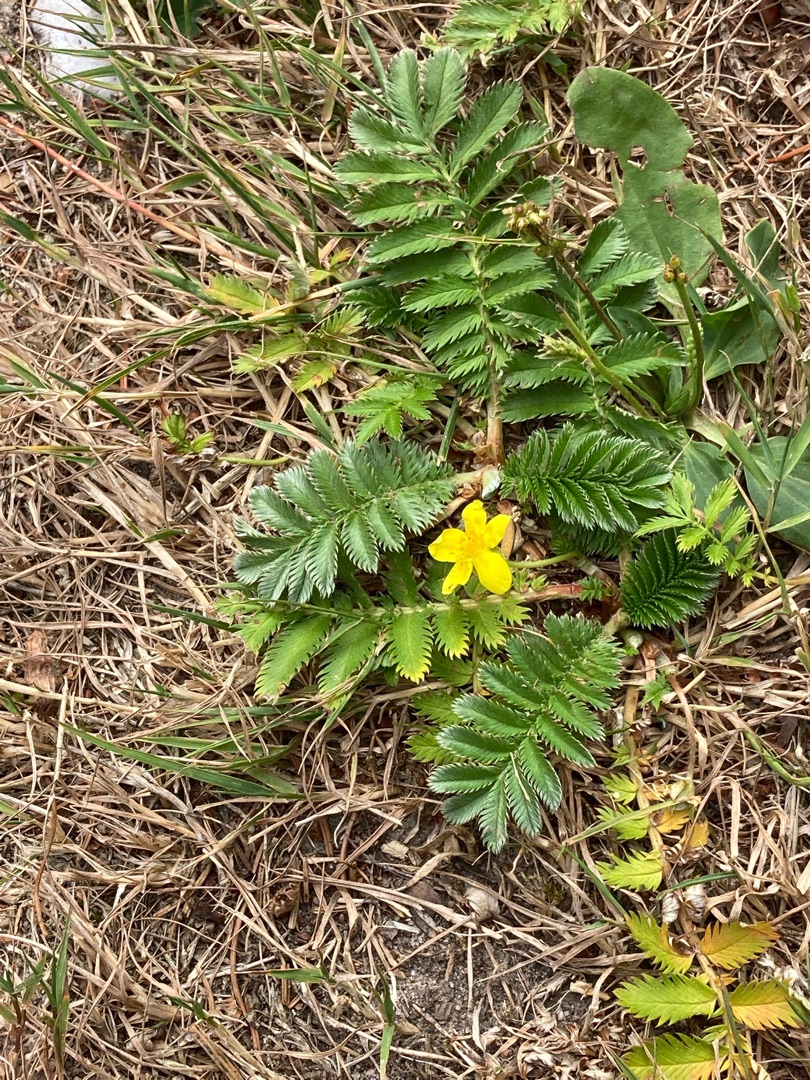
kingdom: Plantae
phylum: Tracheophyta
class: Magnoliopsida
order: Rosales
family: Rosaceae
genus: Argentina
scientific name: Argentina anserina
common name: Gåsepotentil
